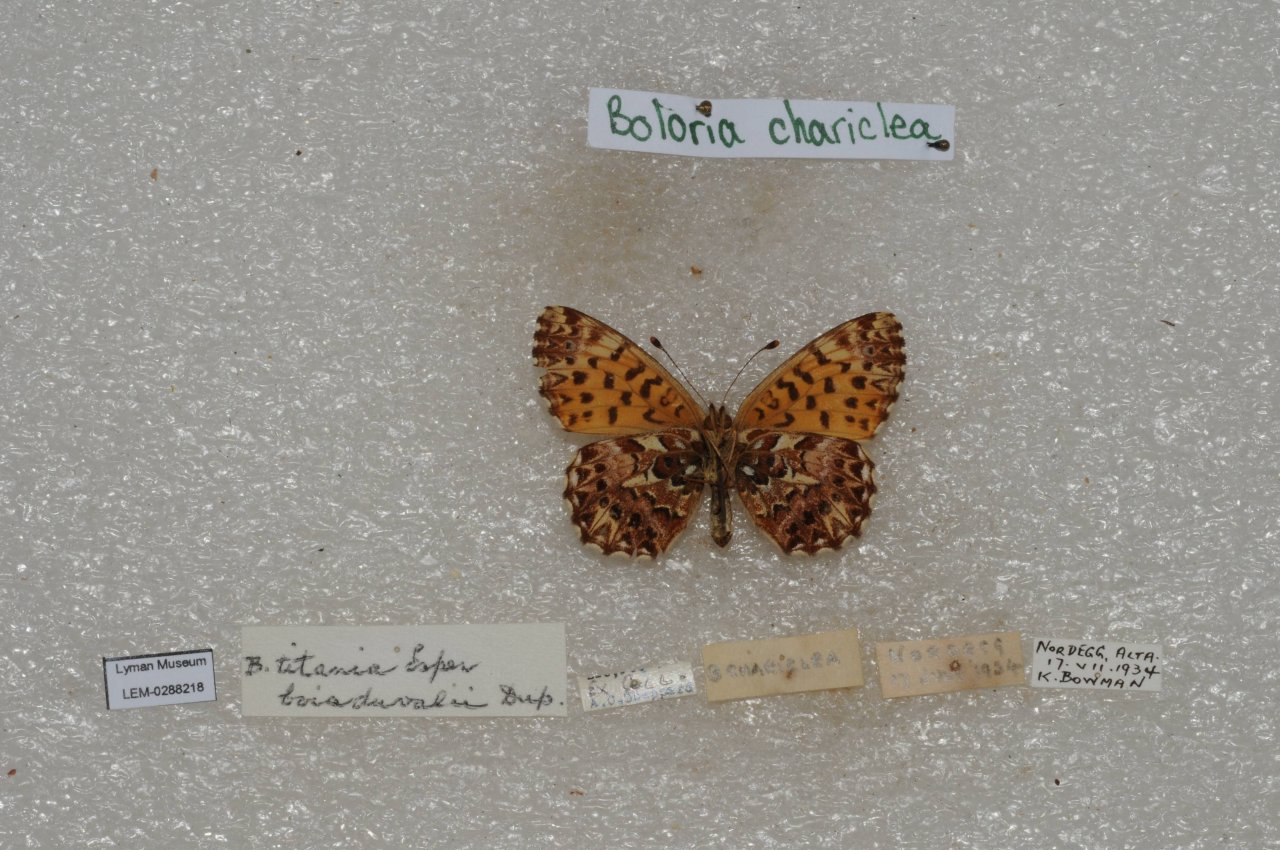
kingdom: Animalia
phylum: Arthropoda
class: Insecta
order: Lepidoptera
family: Nymphalidae
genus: Boloria
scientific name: Boloria chariclea
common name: Arctic Fritillary
